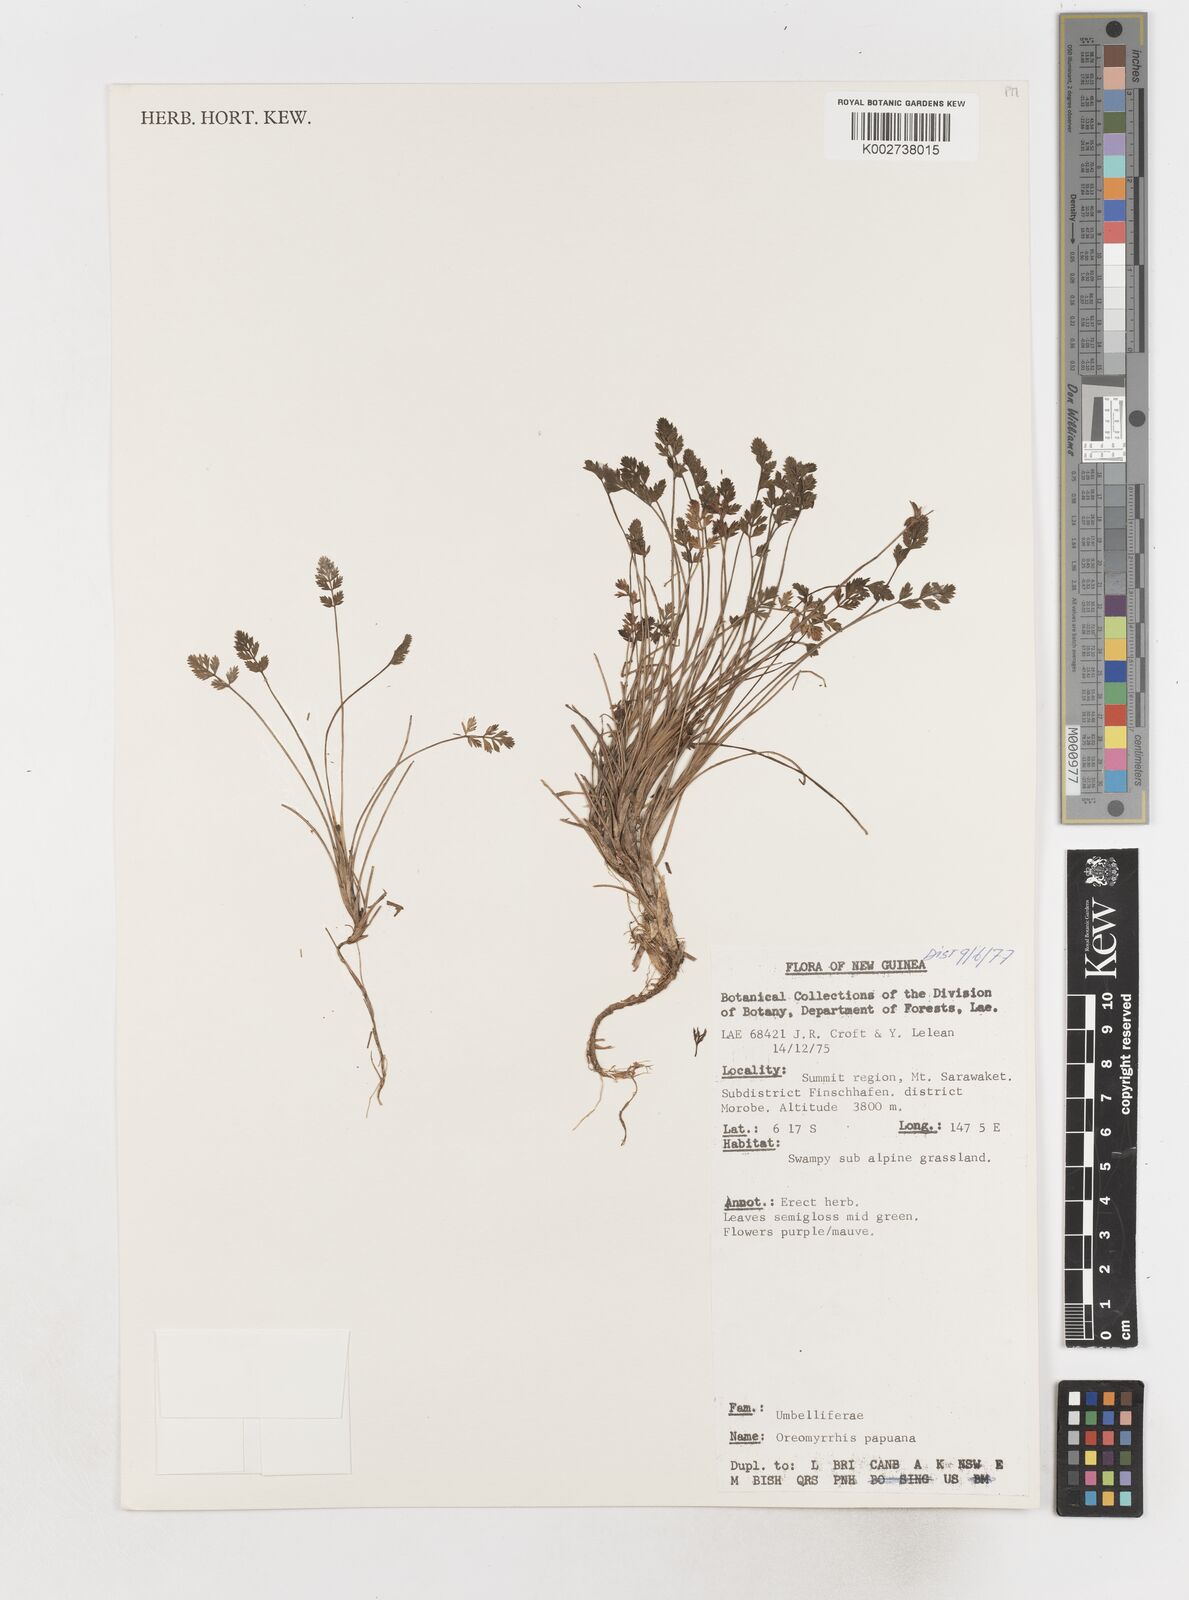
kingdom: Plantae
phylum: Tracheophyta
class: Magnoliopsida
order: Apiales
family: Apiaceae
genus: Chaerophyllum
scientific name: Chaerophyllum papuanum
